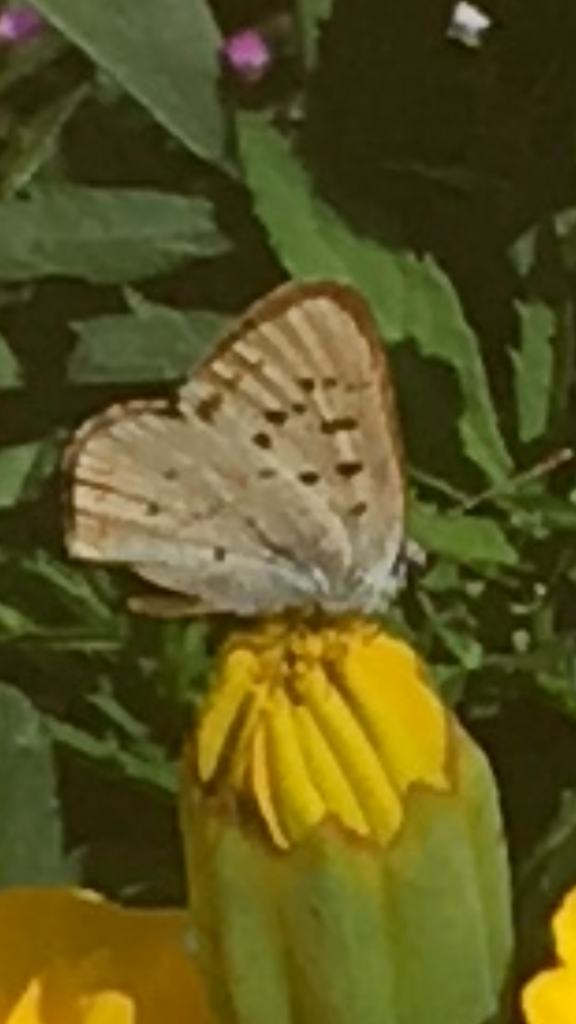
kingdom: Animalia
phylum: Arthropoda
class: Insecta
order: Lepidoptera
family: Lycaenidae
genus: Lycaena
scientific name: Lycaena nivalis
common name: Lilac-bordered Copper
